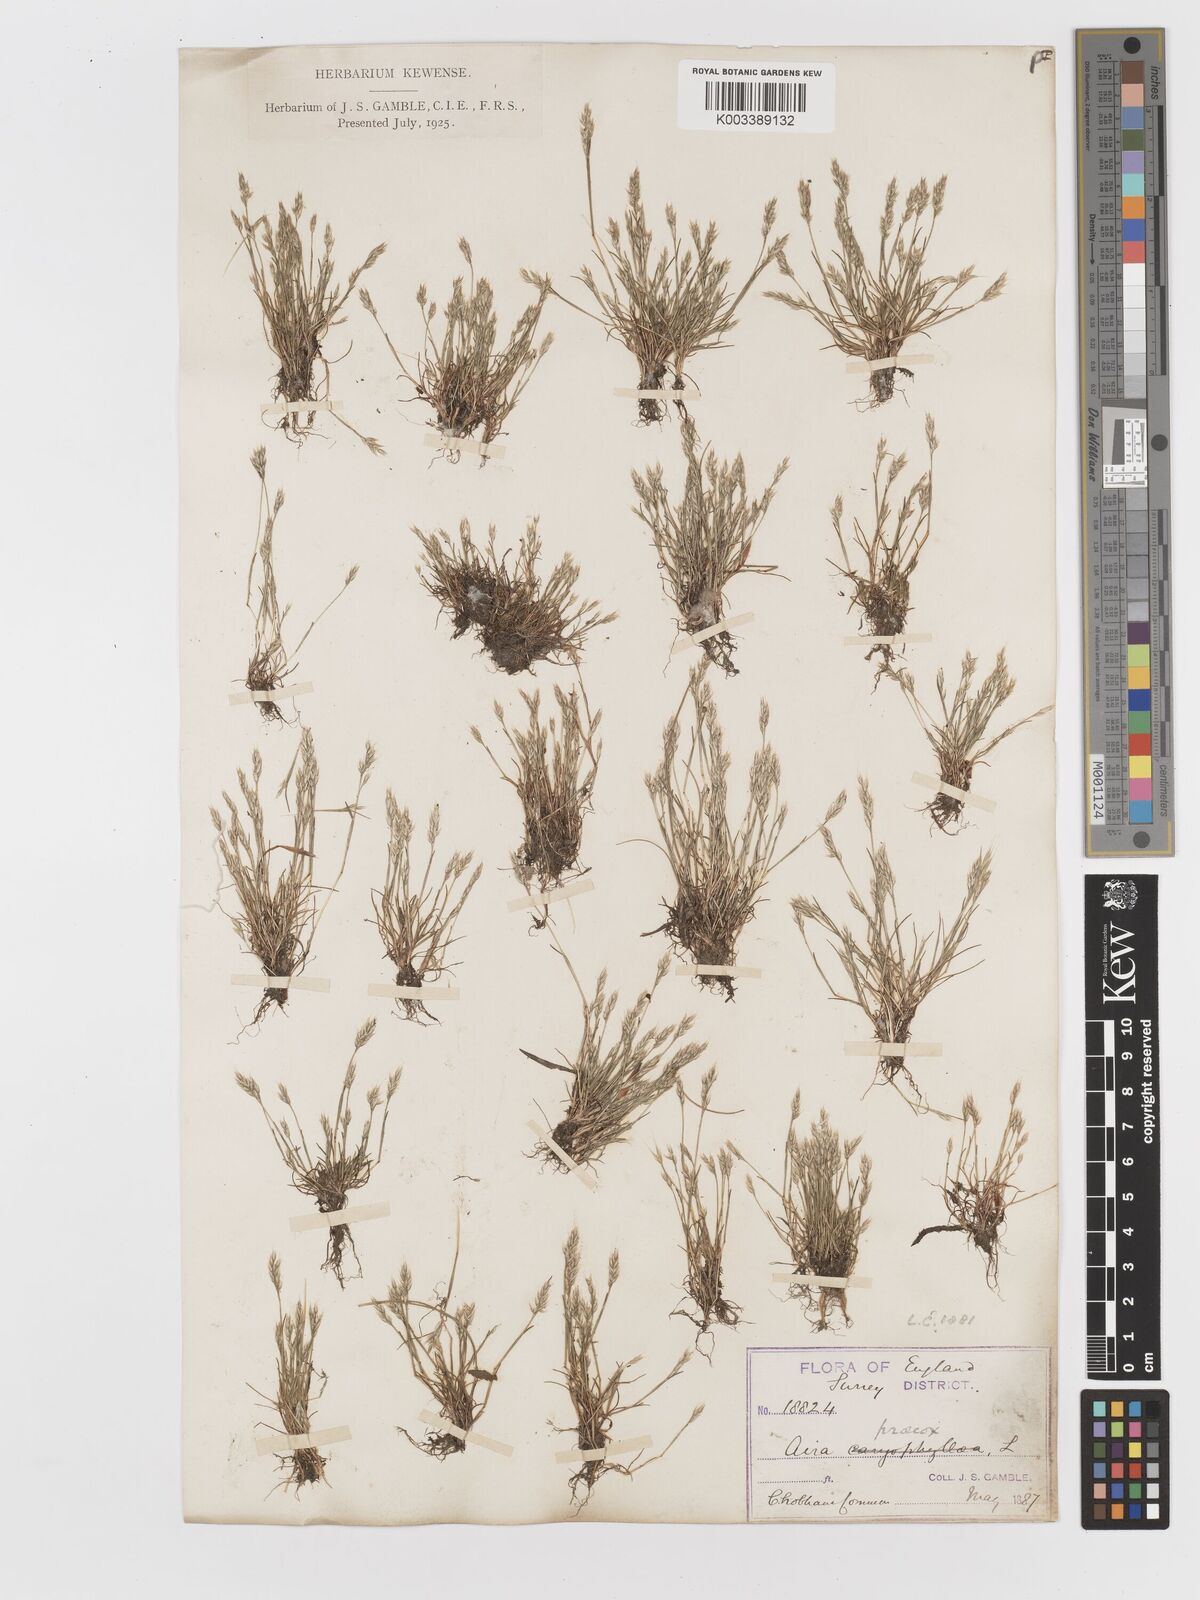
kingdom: Plantae
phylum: Tracheophyta
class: Liliopsida
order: Poales
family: Poaceae
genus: Aira
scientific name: Aira praecox
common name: Early hair-grass
